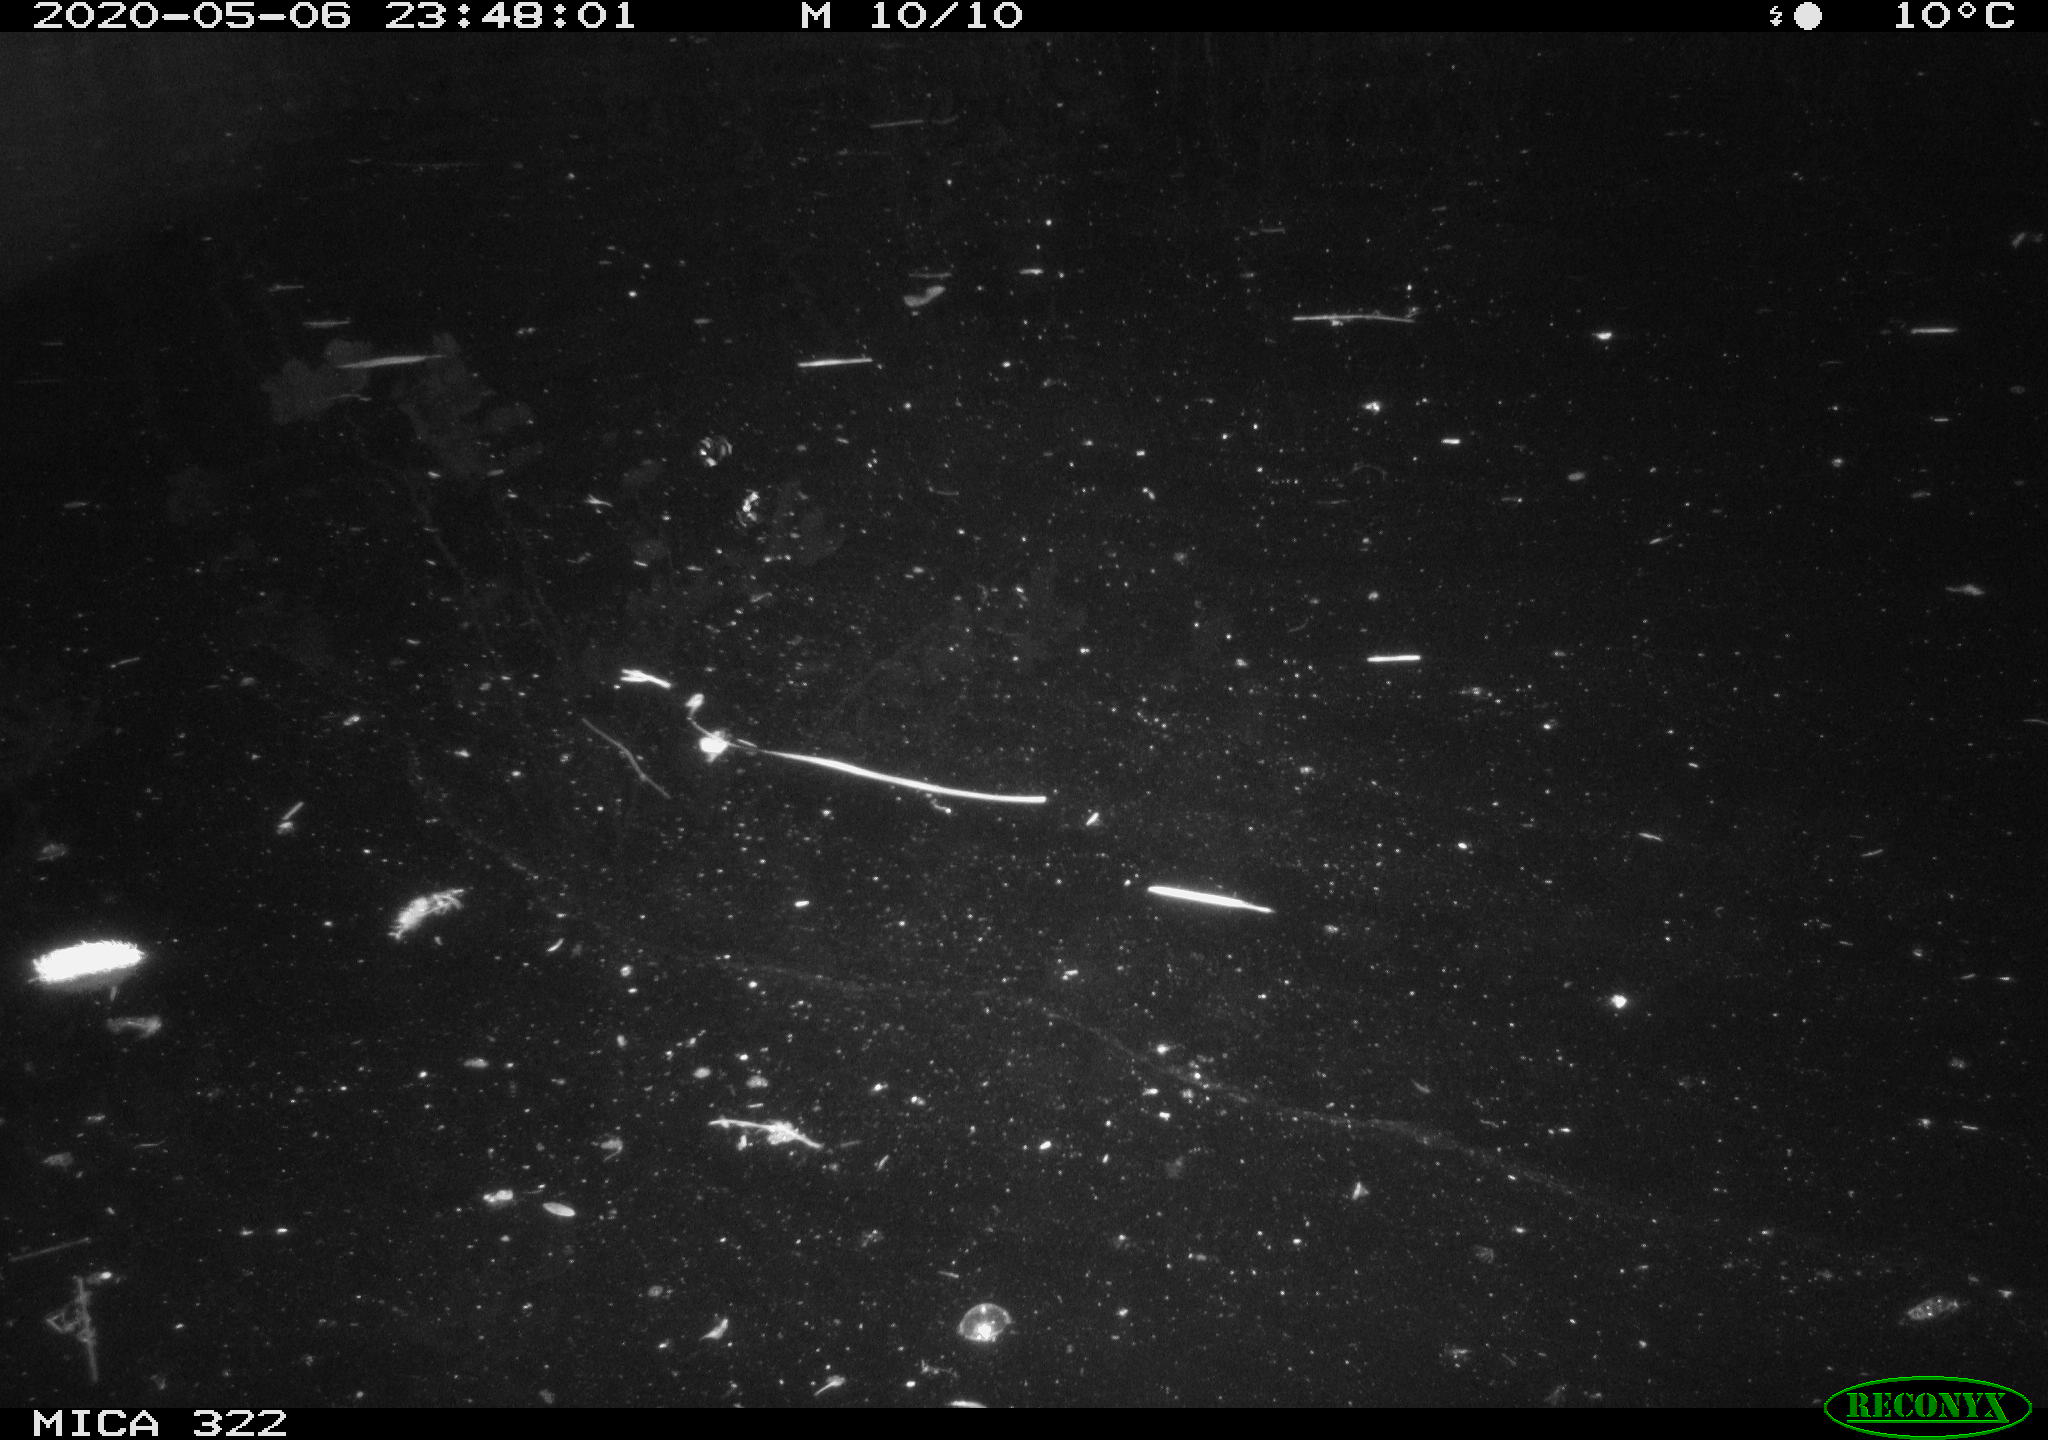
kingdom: Animalia
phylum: Chordata
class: Aves
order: Gruiformes
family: Rallidae
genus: Fulica
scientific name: Fulica atra
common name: Eurasian coot
